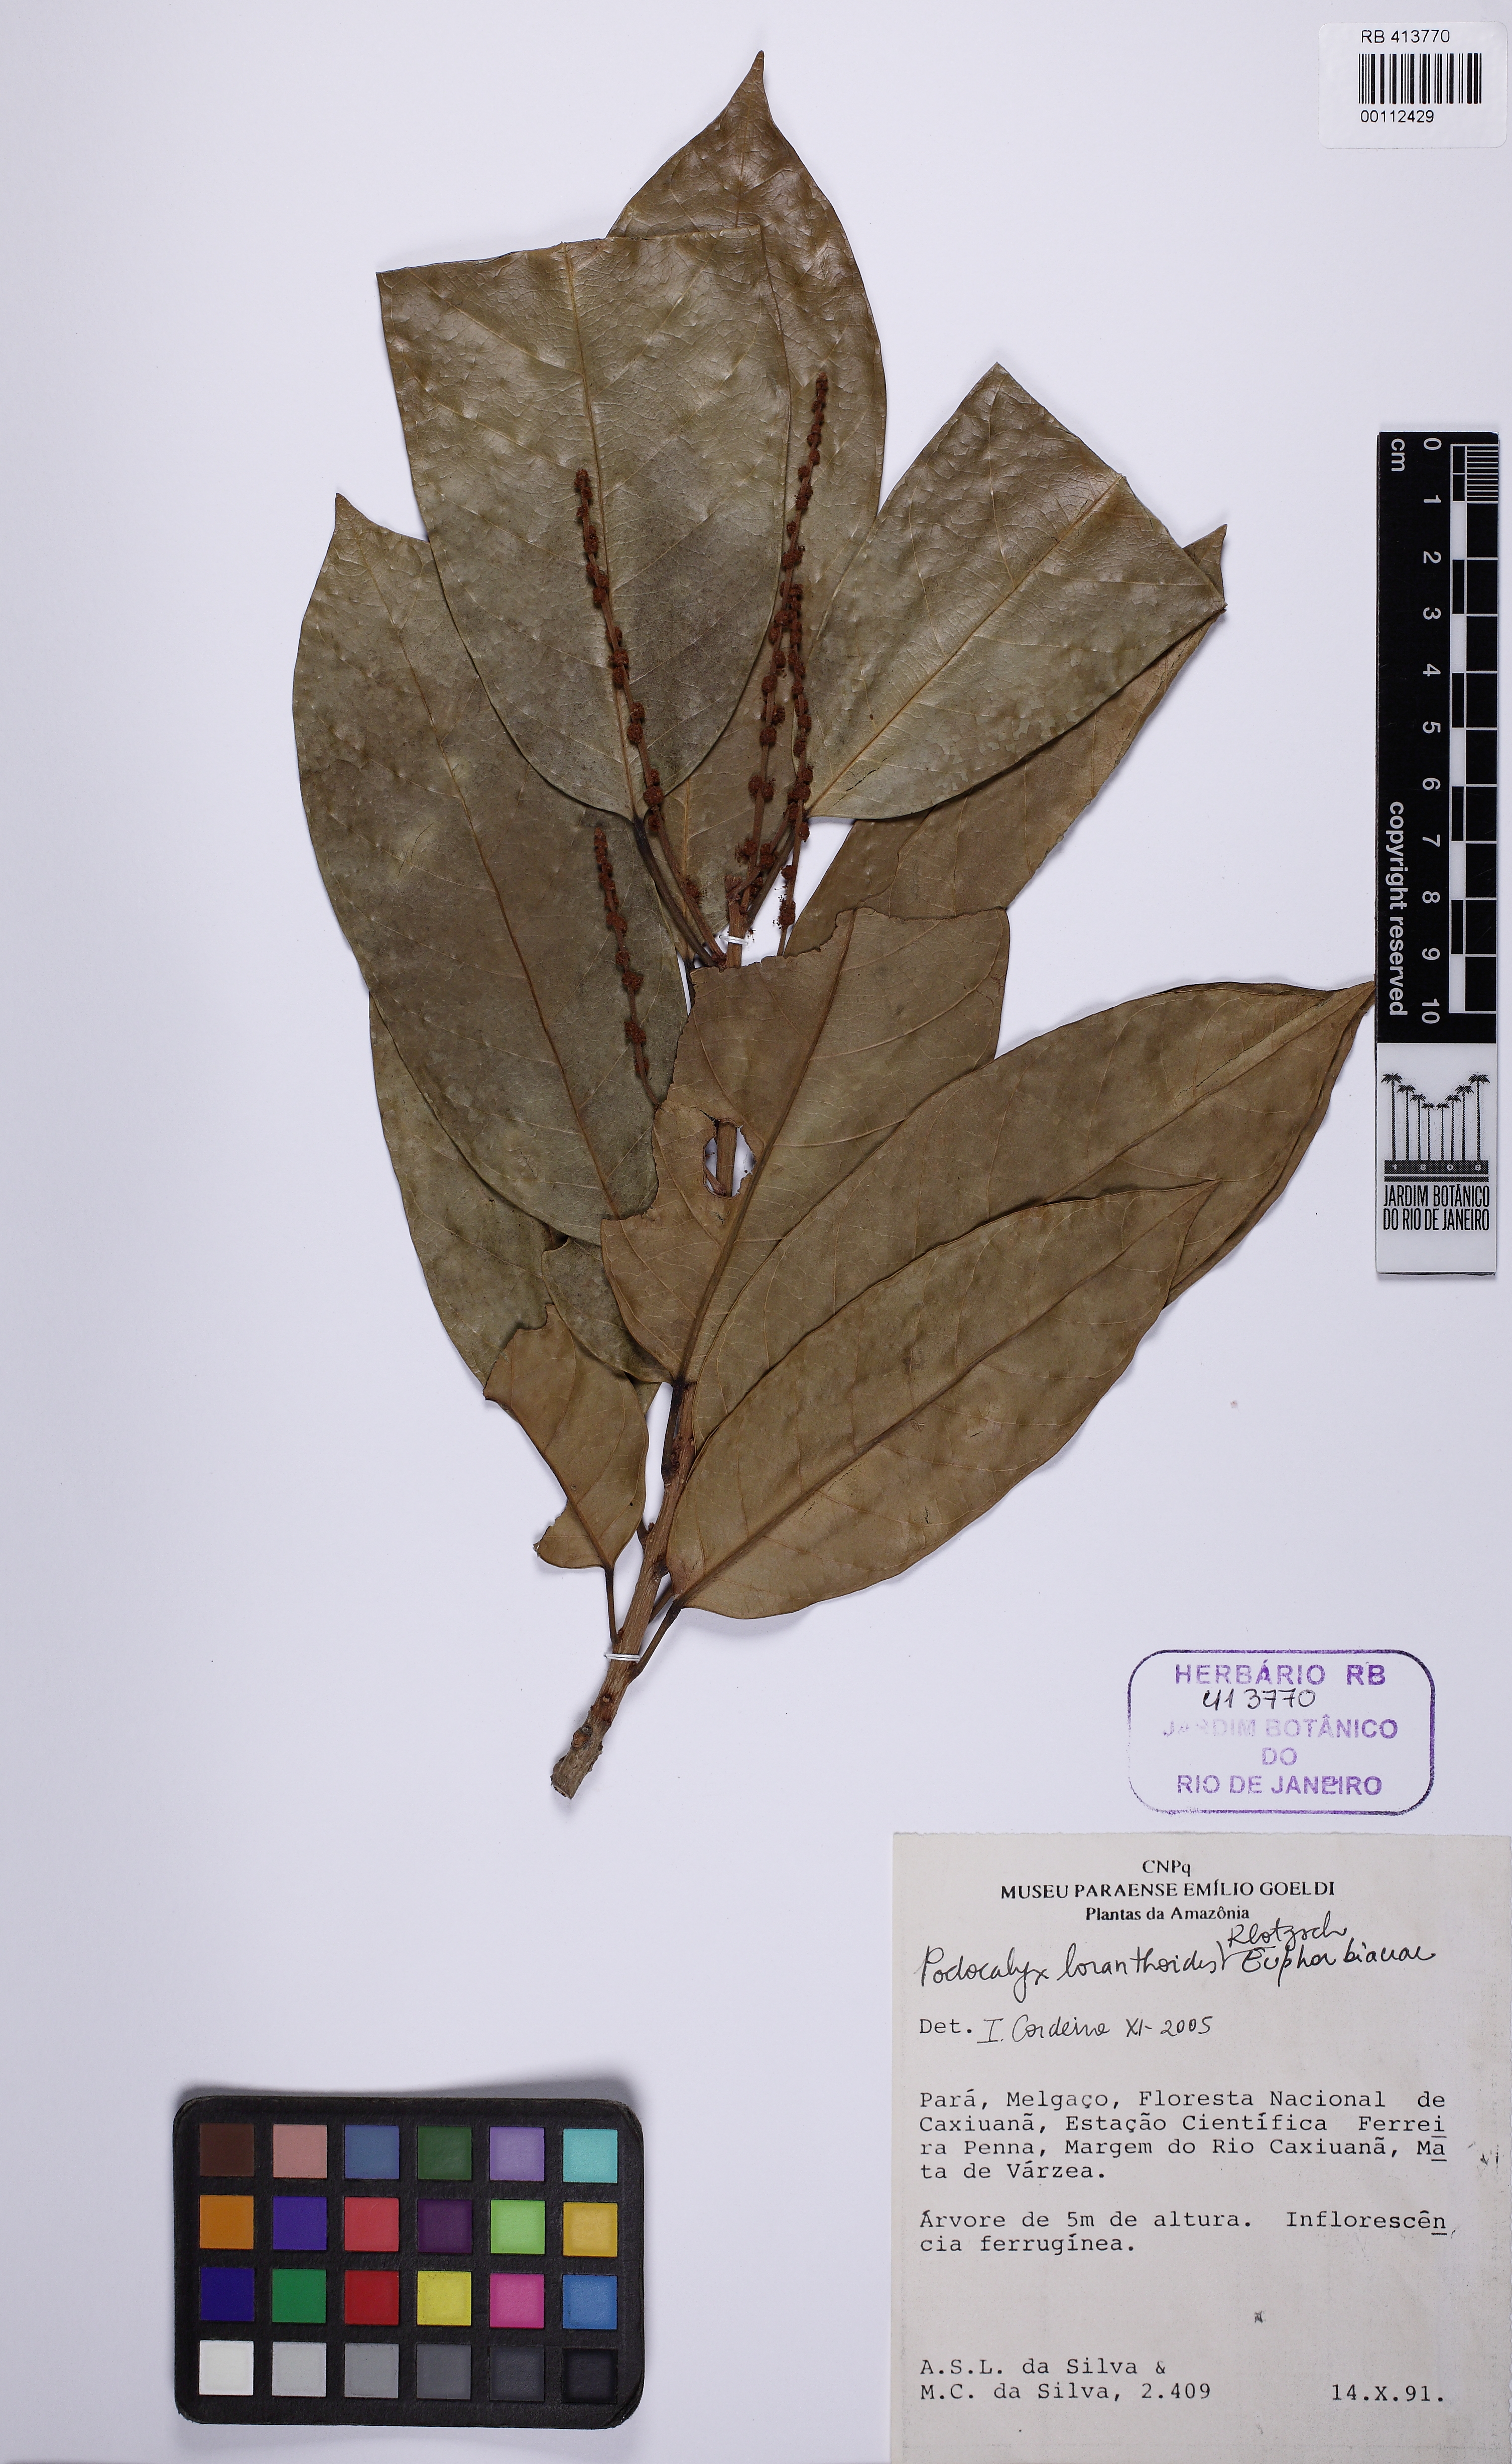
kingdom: Plantae
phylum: Tracheophyta
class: Magnoliopsida
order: Malpighiales
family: Picrodendraceae
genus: Podocalyx
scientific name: Podocalyx loranthoides
